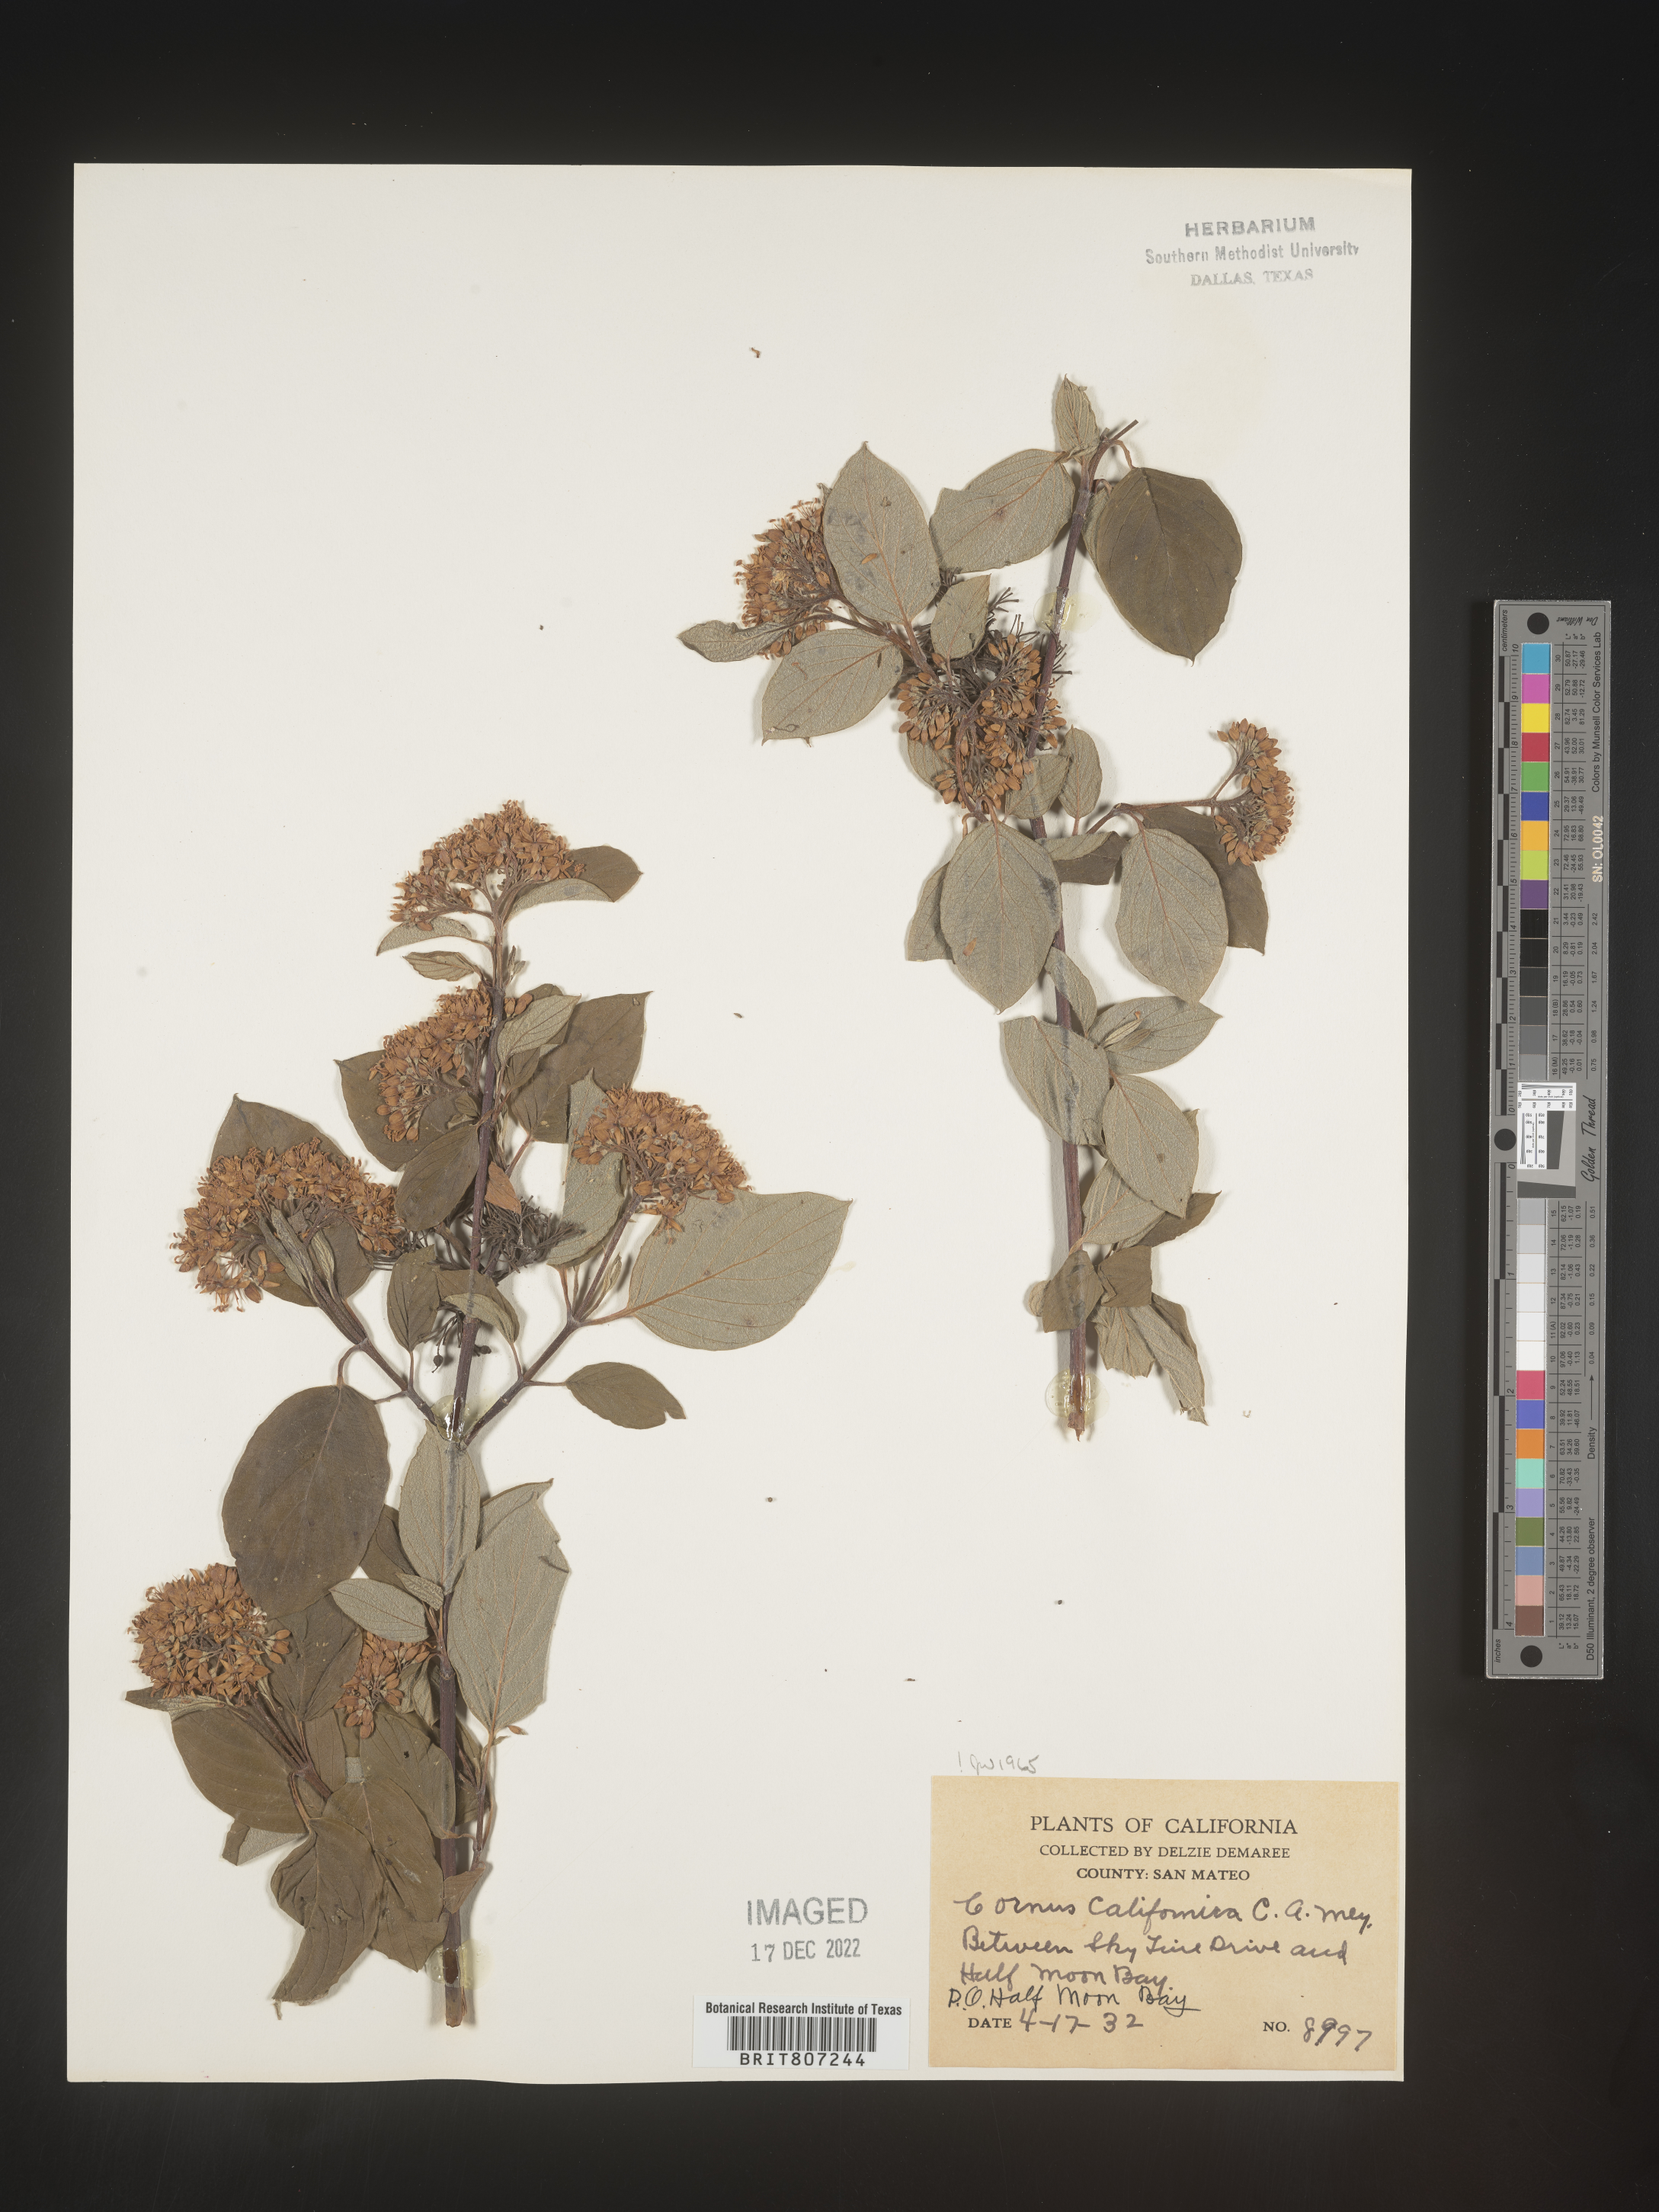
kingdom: Plantae
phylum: Tracheophyta
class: Magnoliopsida
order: Cornales
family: Cornaceae
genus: Cornus
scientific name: Cornus
